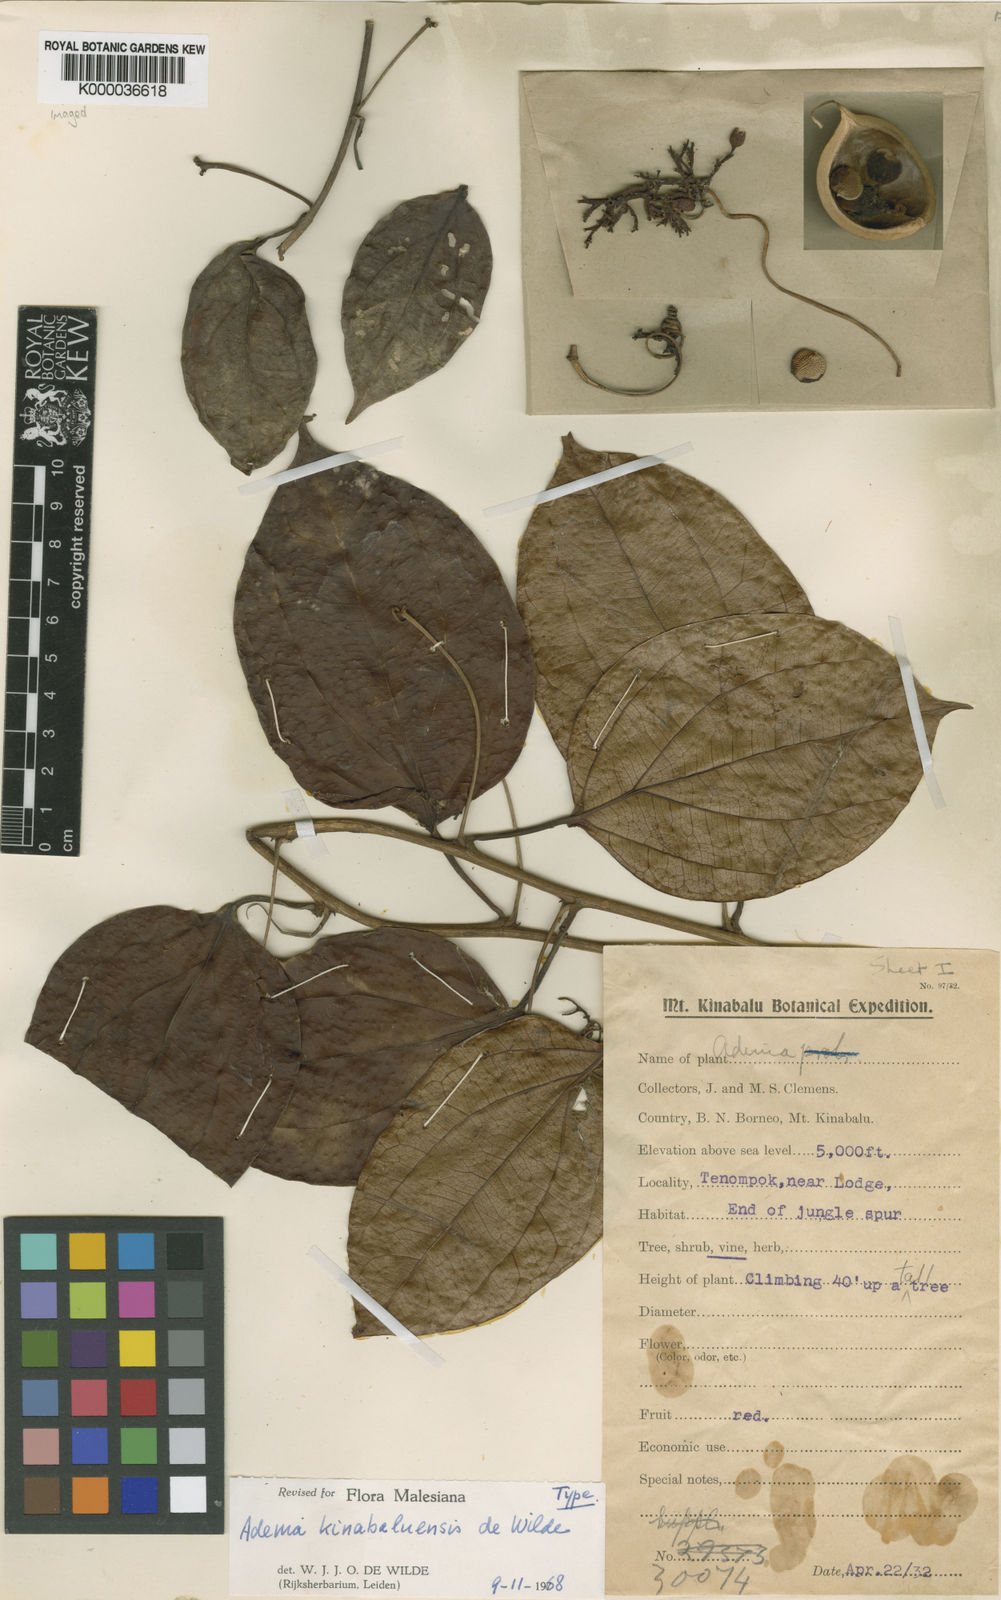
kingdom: Plantae
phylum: Tracheophyta
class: Magnoliopsida
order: Malpighiales
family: Passifloraceae
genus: Adenia
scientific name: Adenia kinabaluensis
